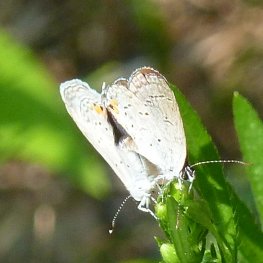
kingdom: Animalia
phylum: Arthropoda
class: Insecta
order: Lepidoptera
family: Lycaenidae
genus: Elkalyce
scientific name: Elkalyce comyntas
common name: Eastern Tailed-Blue
